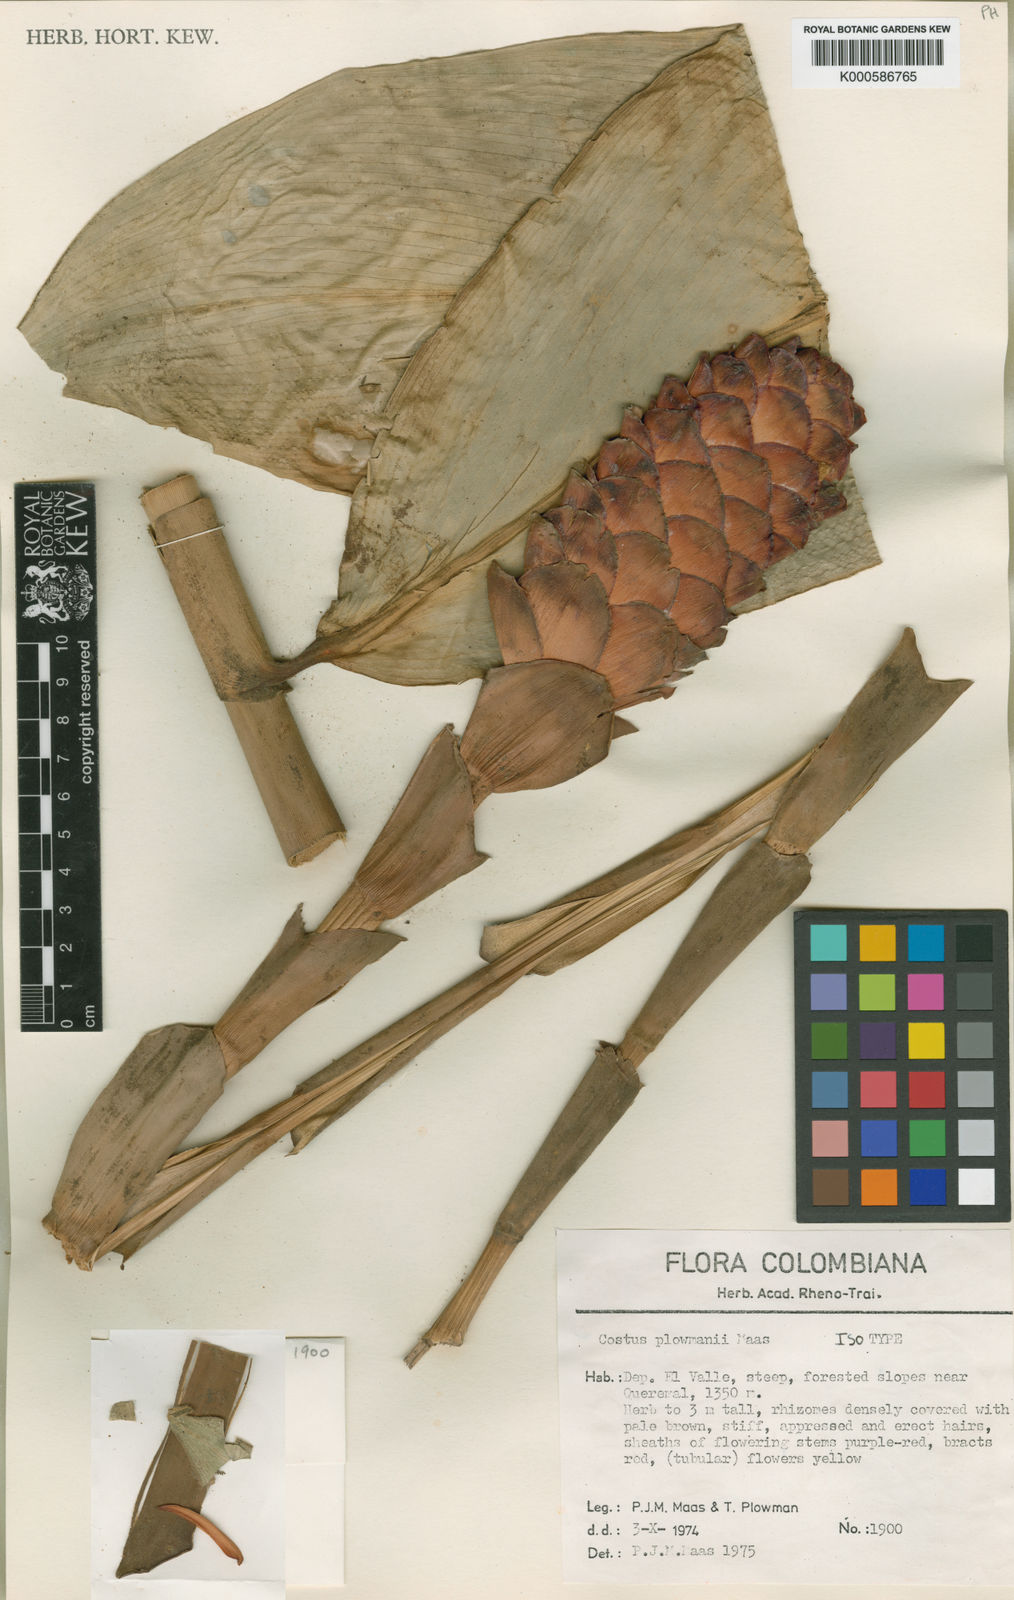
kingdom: Plantae
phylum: Tracheophyta
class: Liliopsida
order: Zingiberales
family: Costaceae
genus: Costus
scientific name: Costus plowmanii
